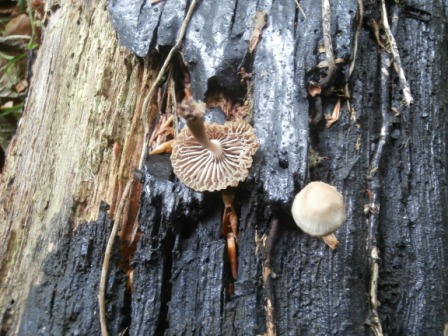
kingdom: Fungi
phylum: Basidiomycota
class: Agaricomycetes
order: Agaricales
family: Mycenaceae
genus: Mycena
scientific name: Mycena galericulata
